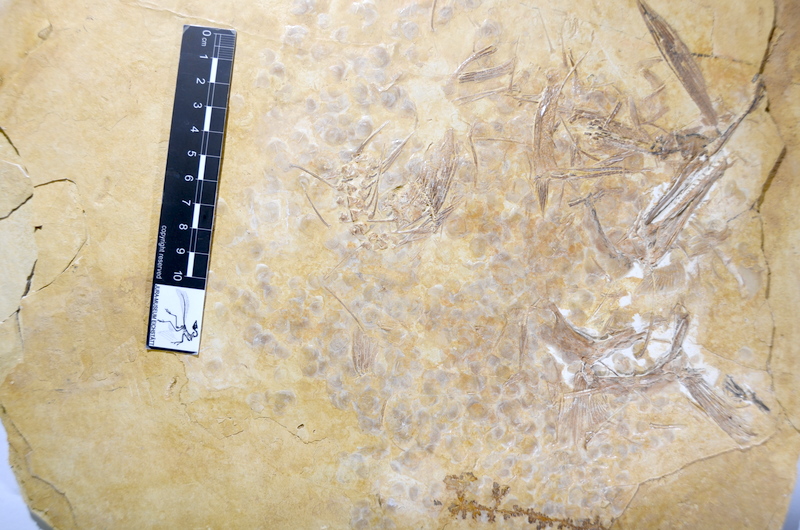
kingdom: Animalia
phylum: Chordata
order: Amiiformes
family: Caturidae
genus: Caturus
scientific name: Caturus
